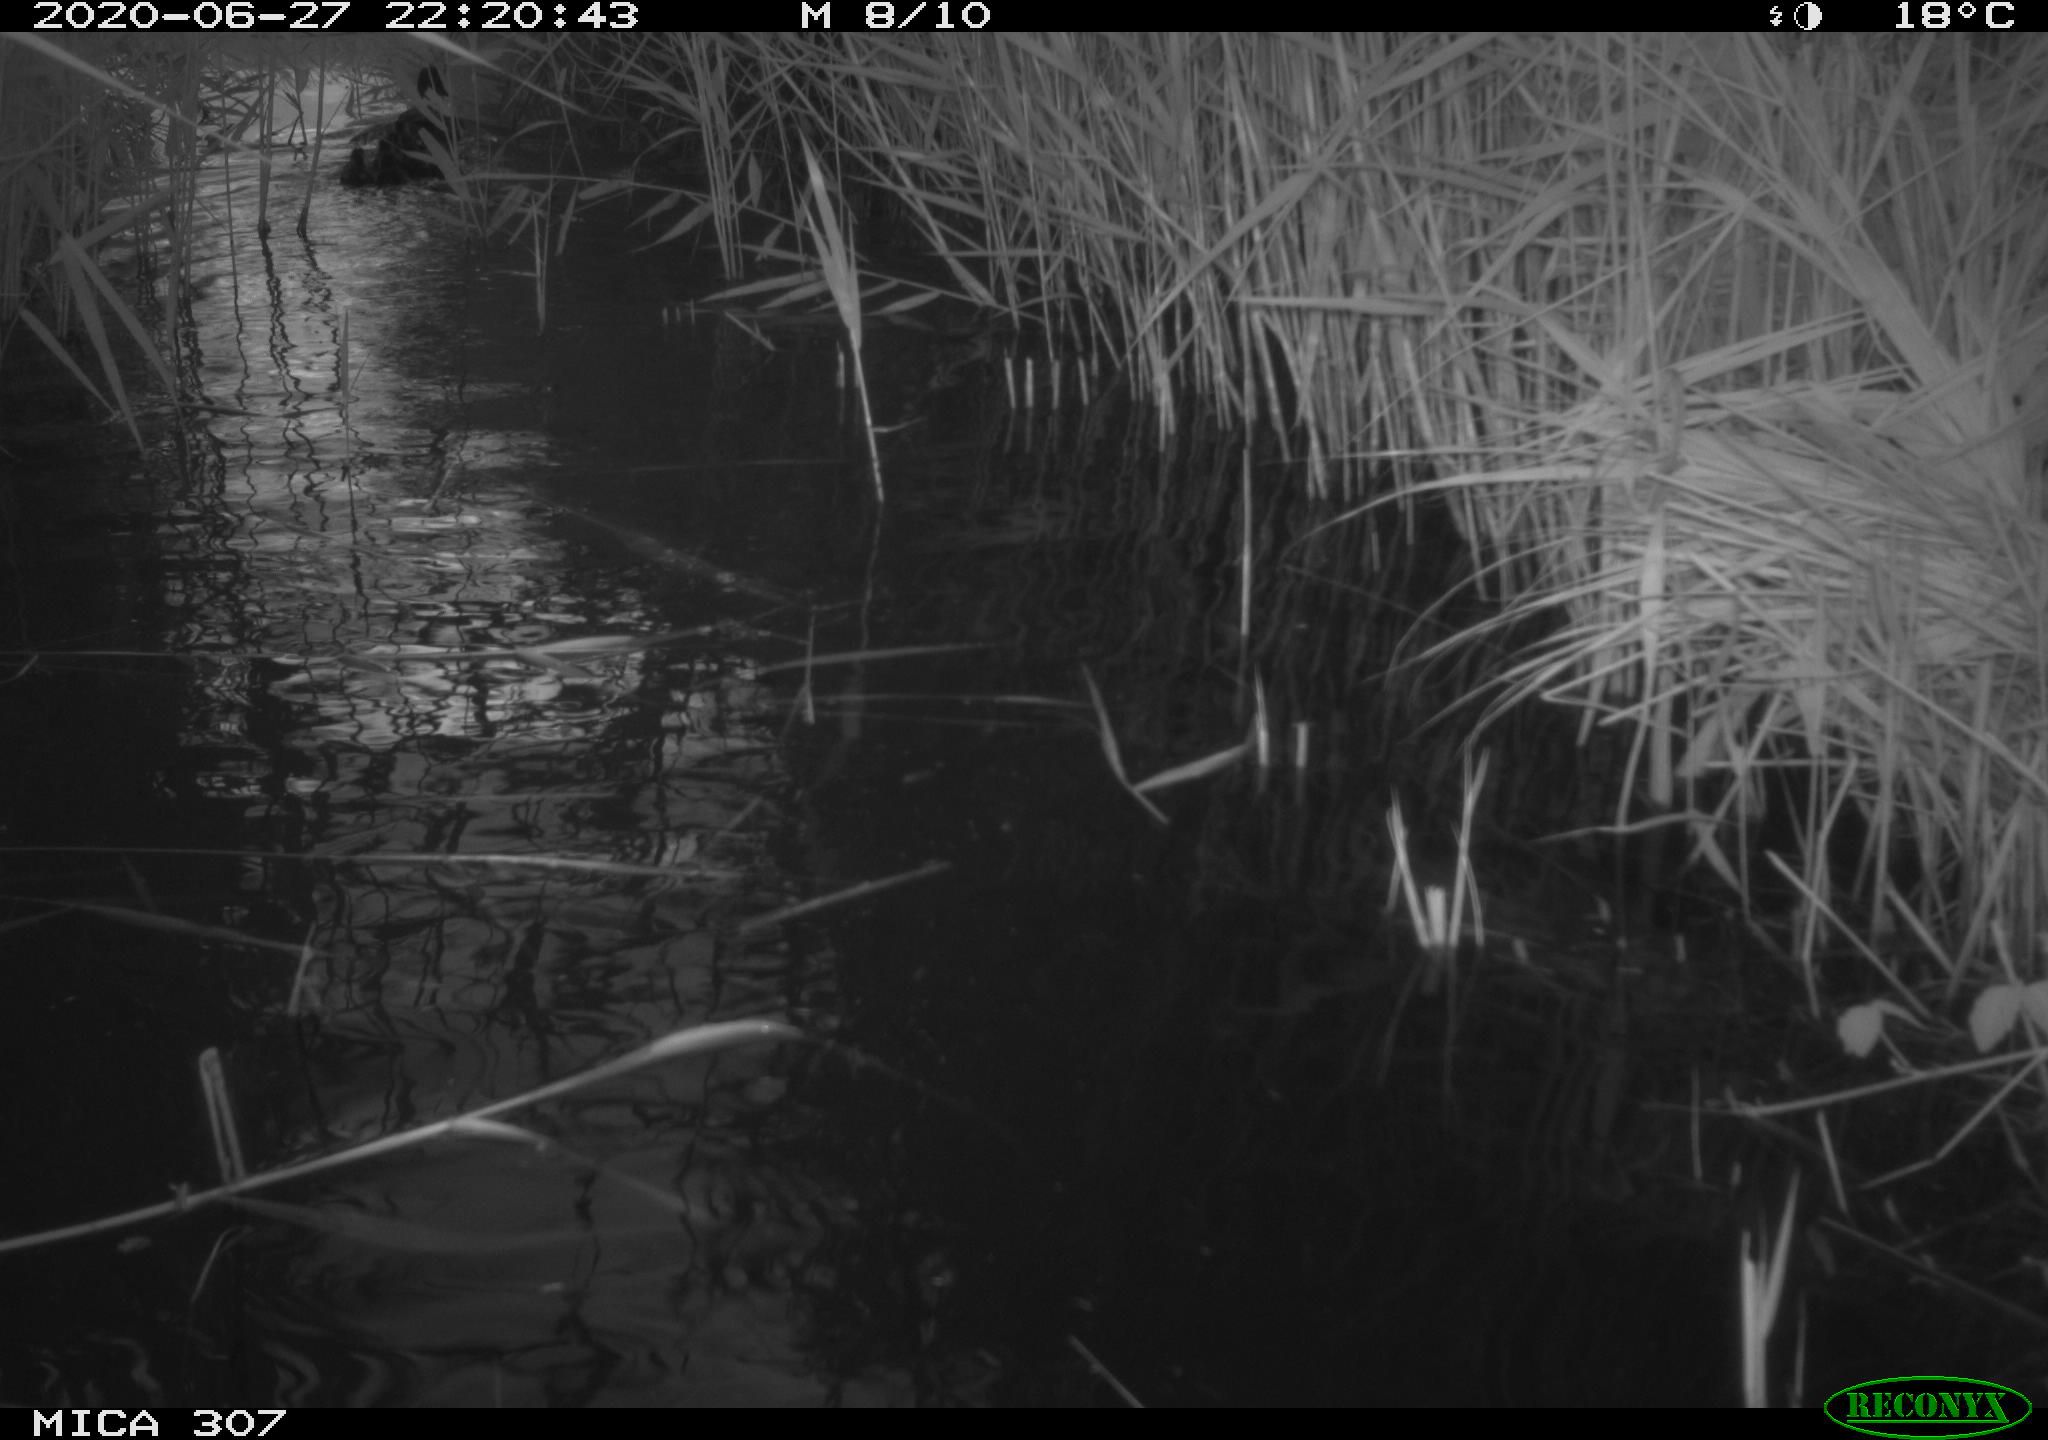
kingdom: Animalia
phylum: Chordata
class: Aves
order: Anseriformes
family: Anatidae
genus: Anas
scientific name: Anas platyrhynchos
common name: Mallard
